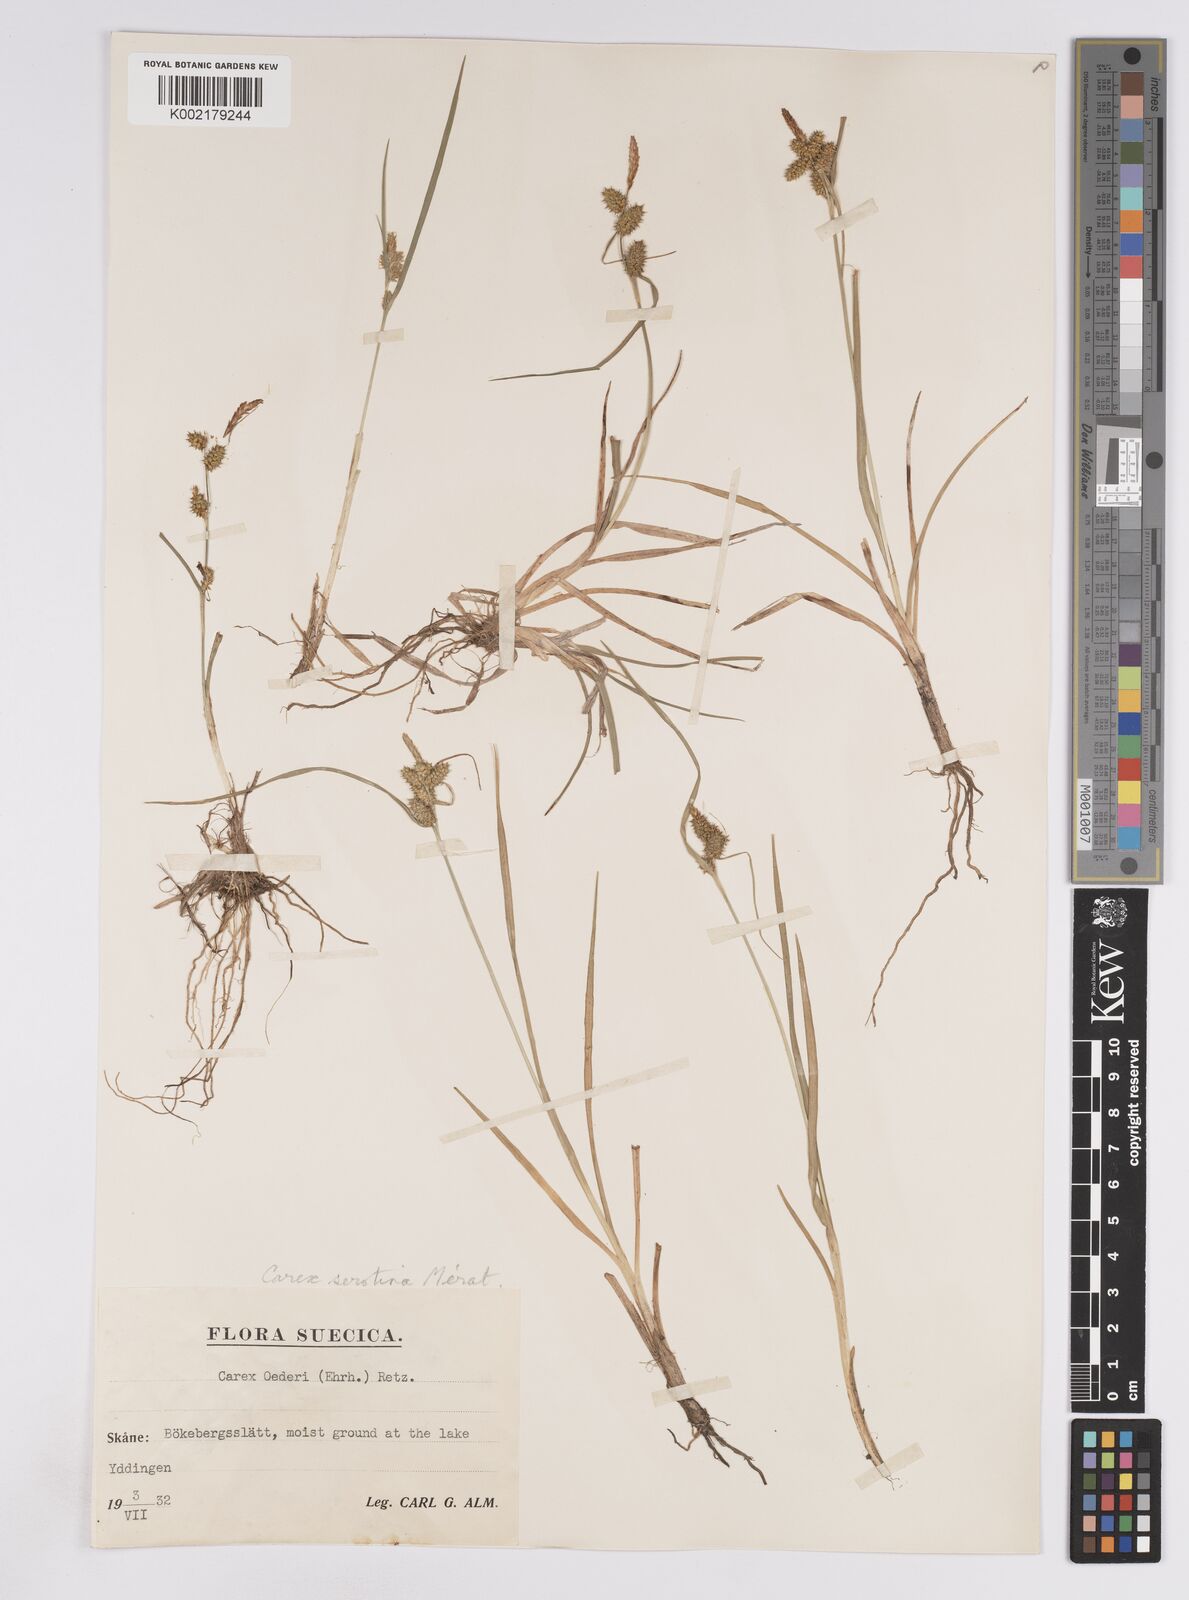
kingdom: Plantae
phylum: Tracheophyta
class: Liliopsida
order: Poales
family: Cyperaceae
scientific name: Cyperaceae
